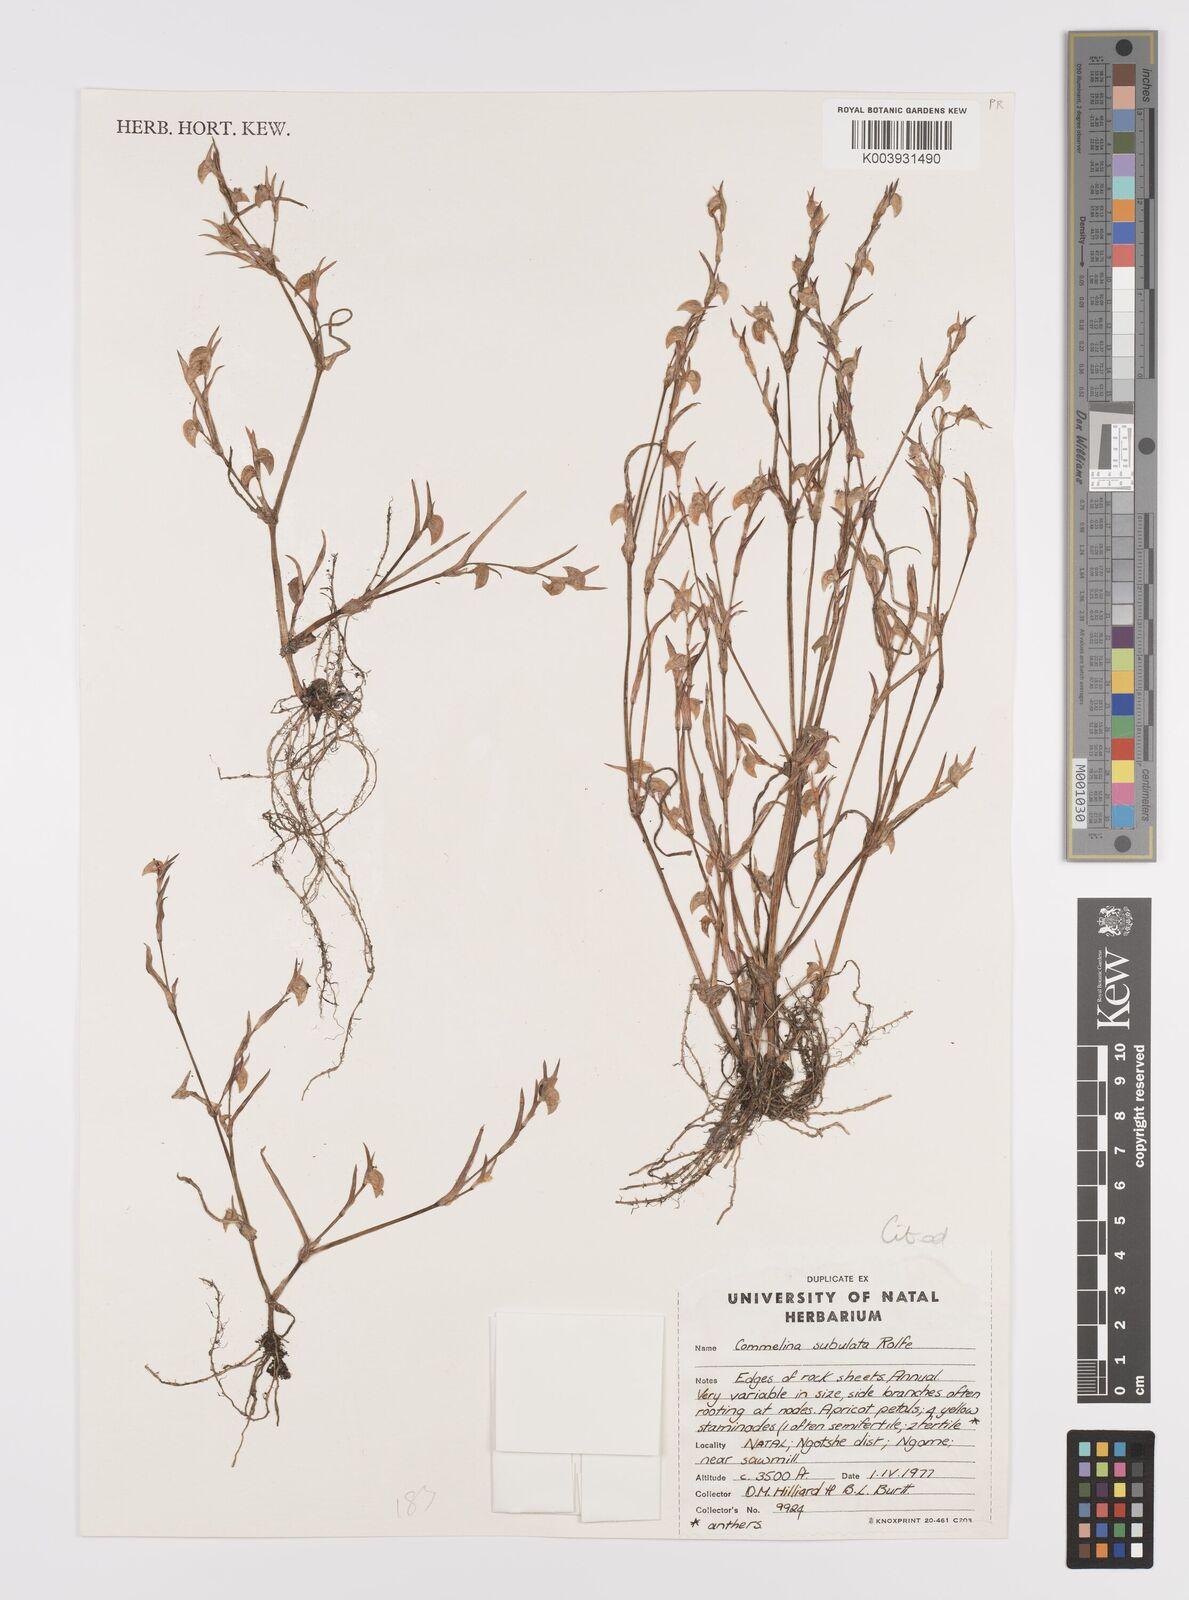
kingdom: Plantae
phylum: Tracheophyta
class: Liliopsida
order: Commelinales
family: Commelinaceae
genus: Commelina
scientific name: Commelina subulata
